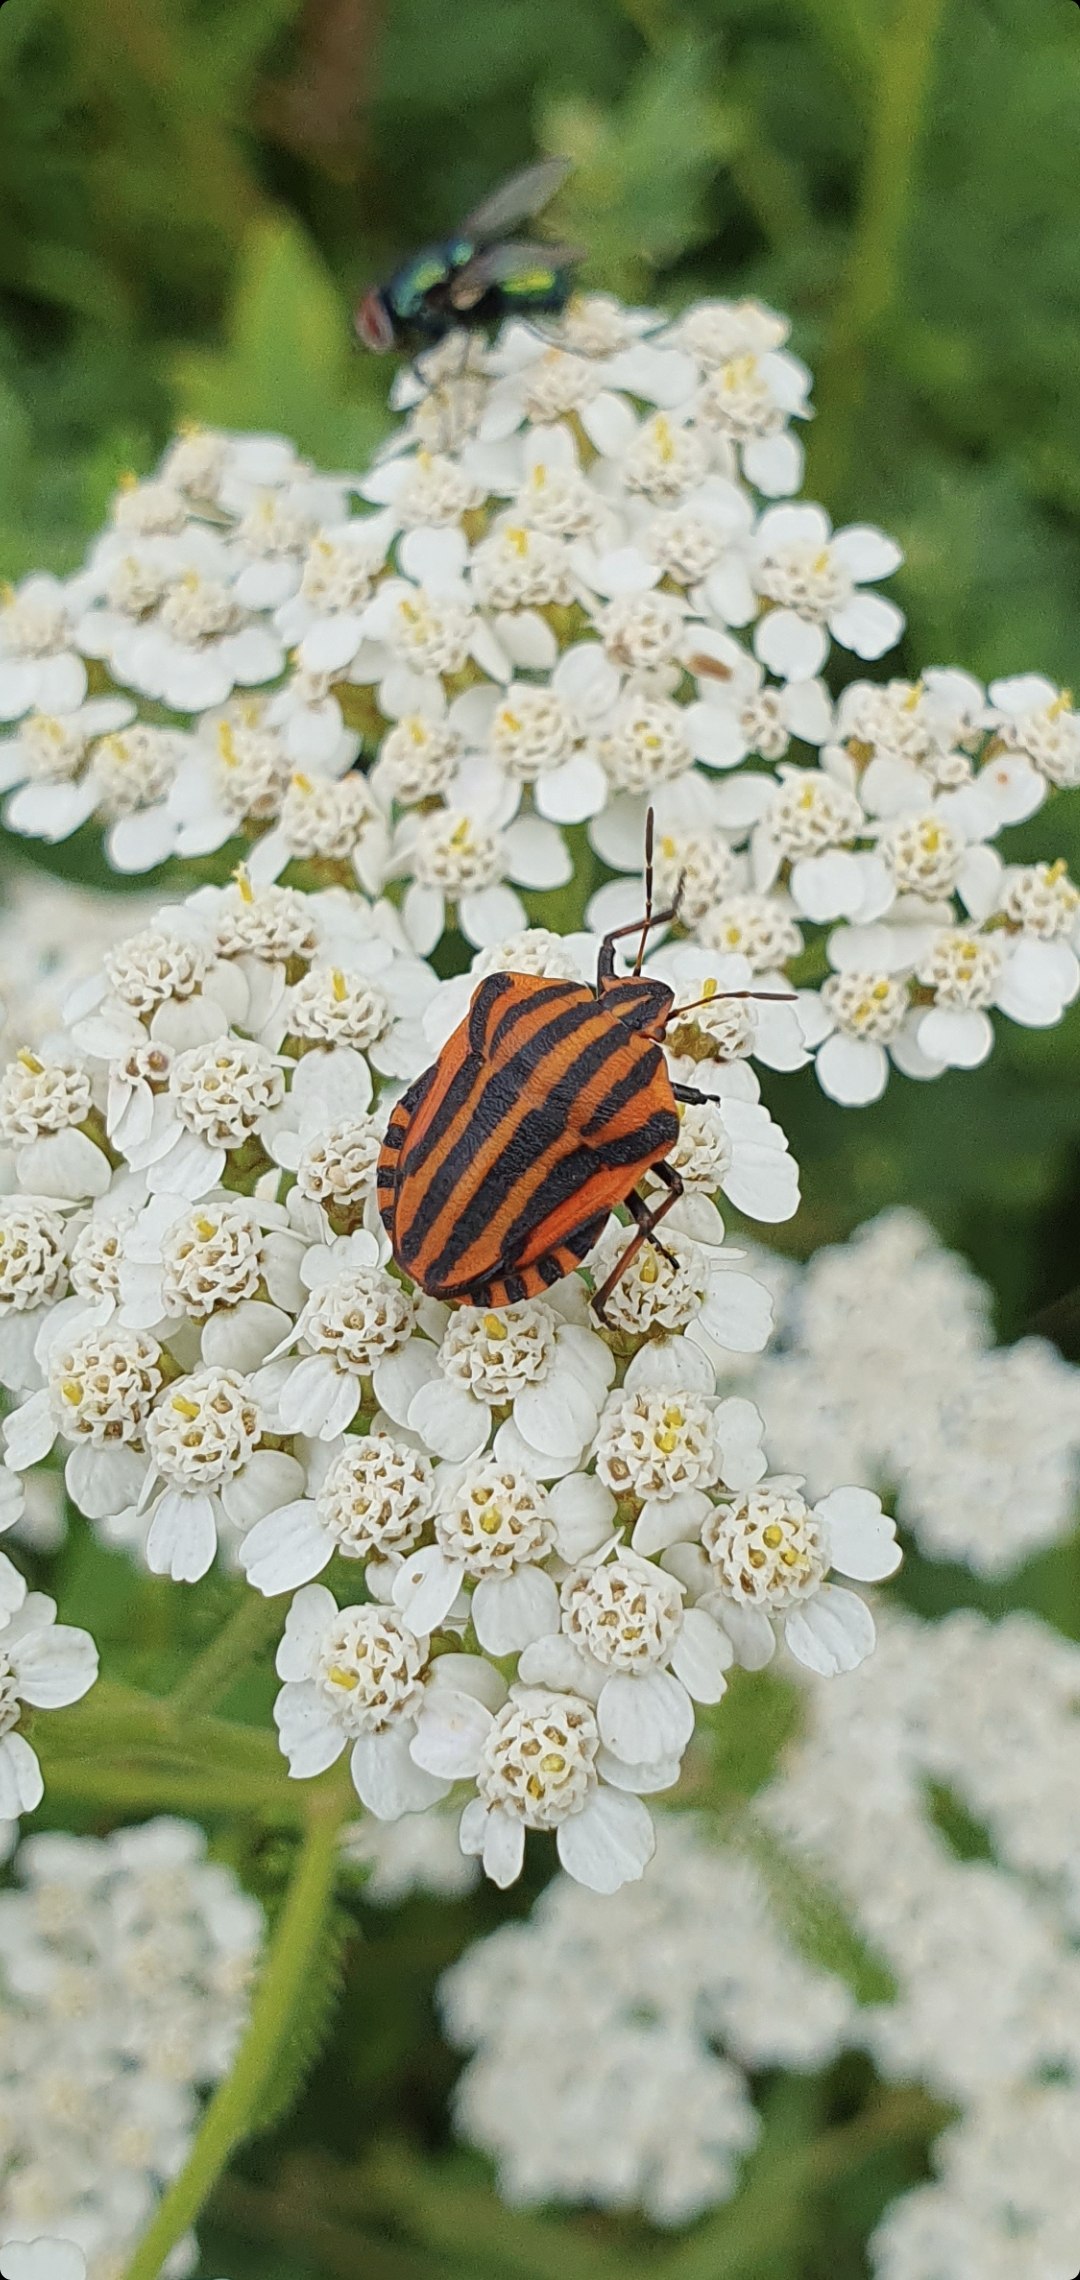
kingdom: Animalia
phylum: Arthropoda
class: Insecta
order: Hemiptera
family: Pentatomidae
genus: Graphosoma
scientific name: Graphosoma italicum
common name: Stribetæge
